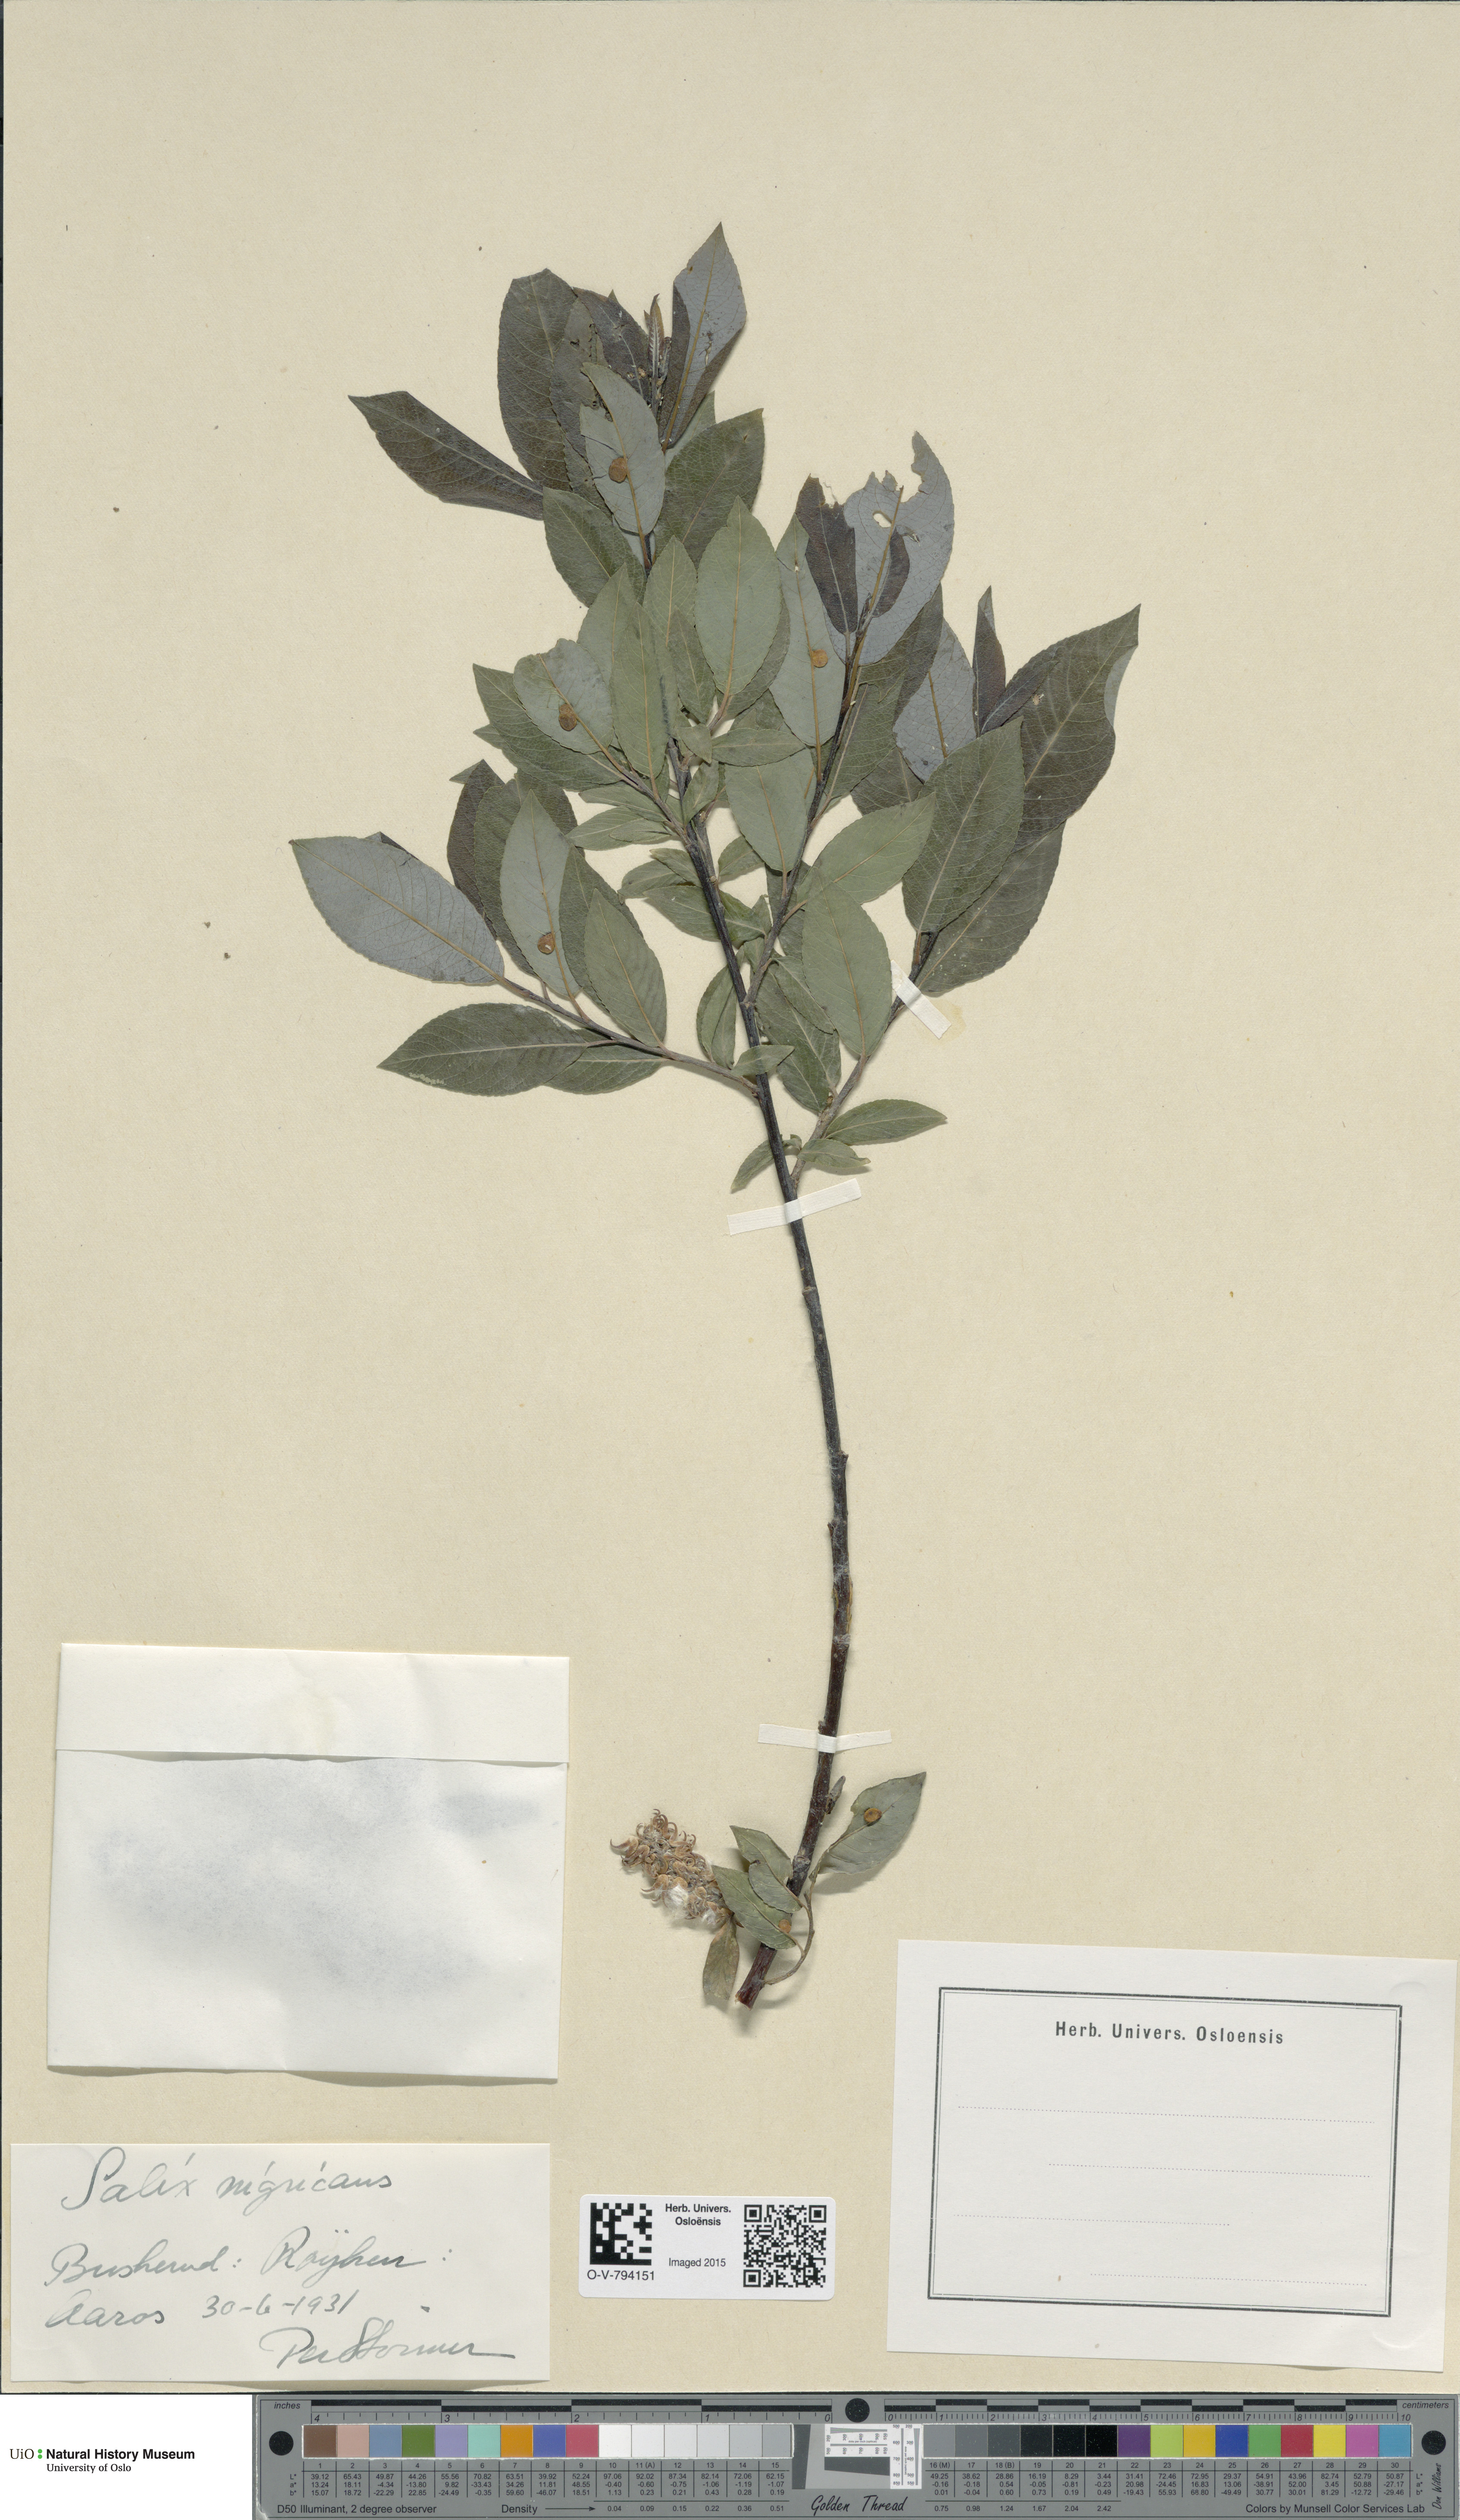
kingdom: Plantae
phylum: Tracheophyta
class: Magnoliopsida
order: Malpighiales
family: Salicaceae
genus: Salix
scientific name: Salix myrsinifolia
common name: Dark-leaved willow
